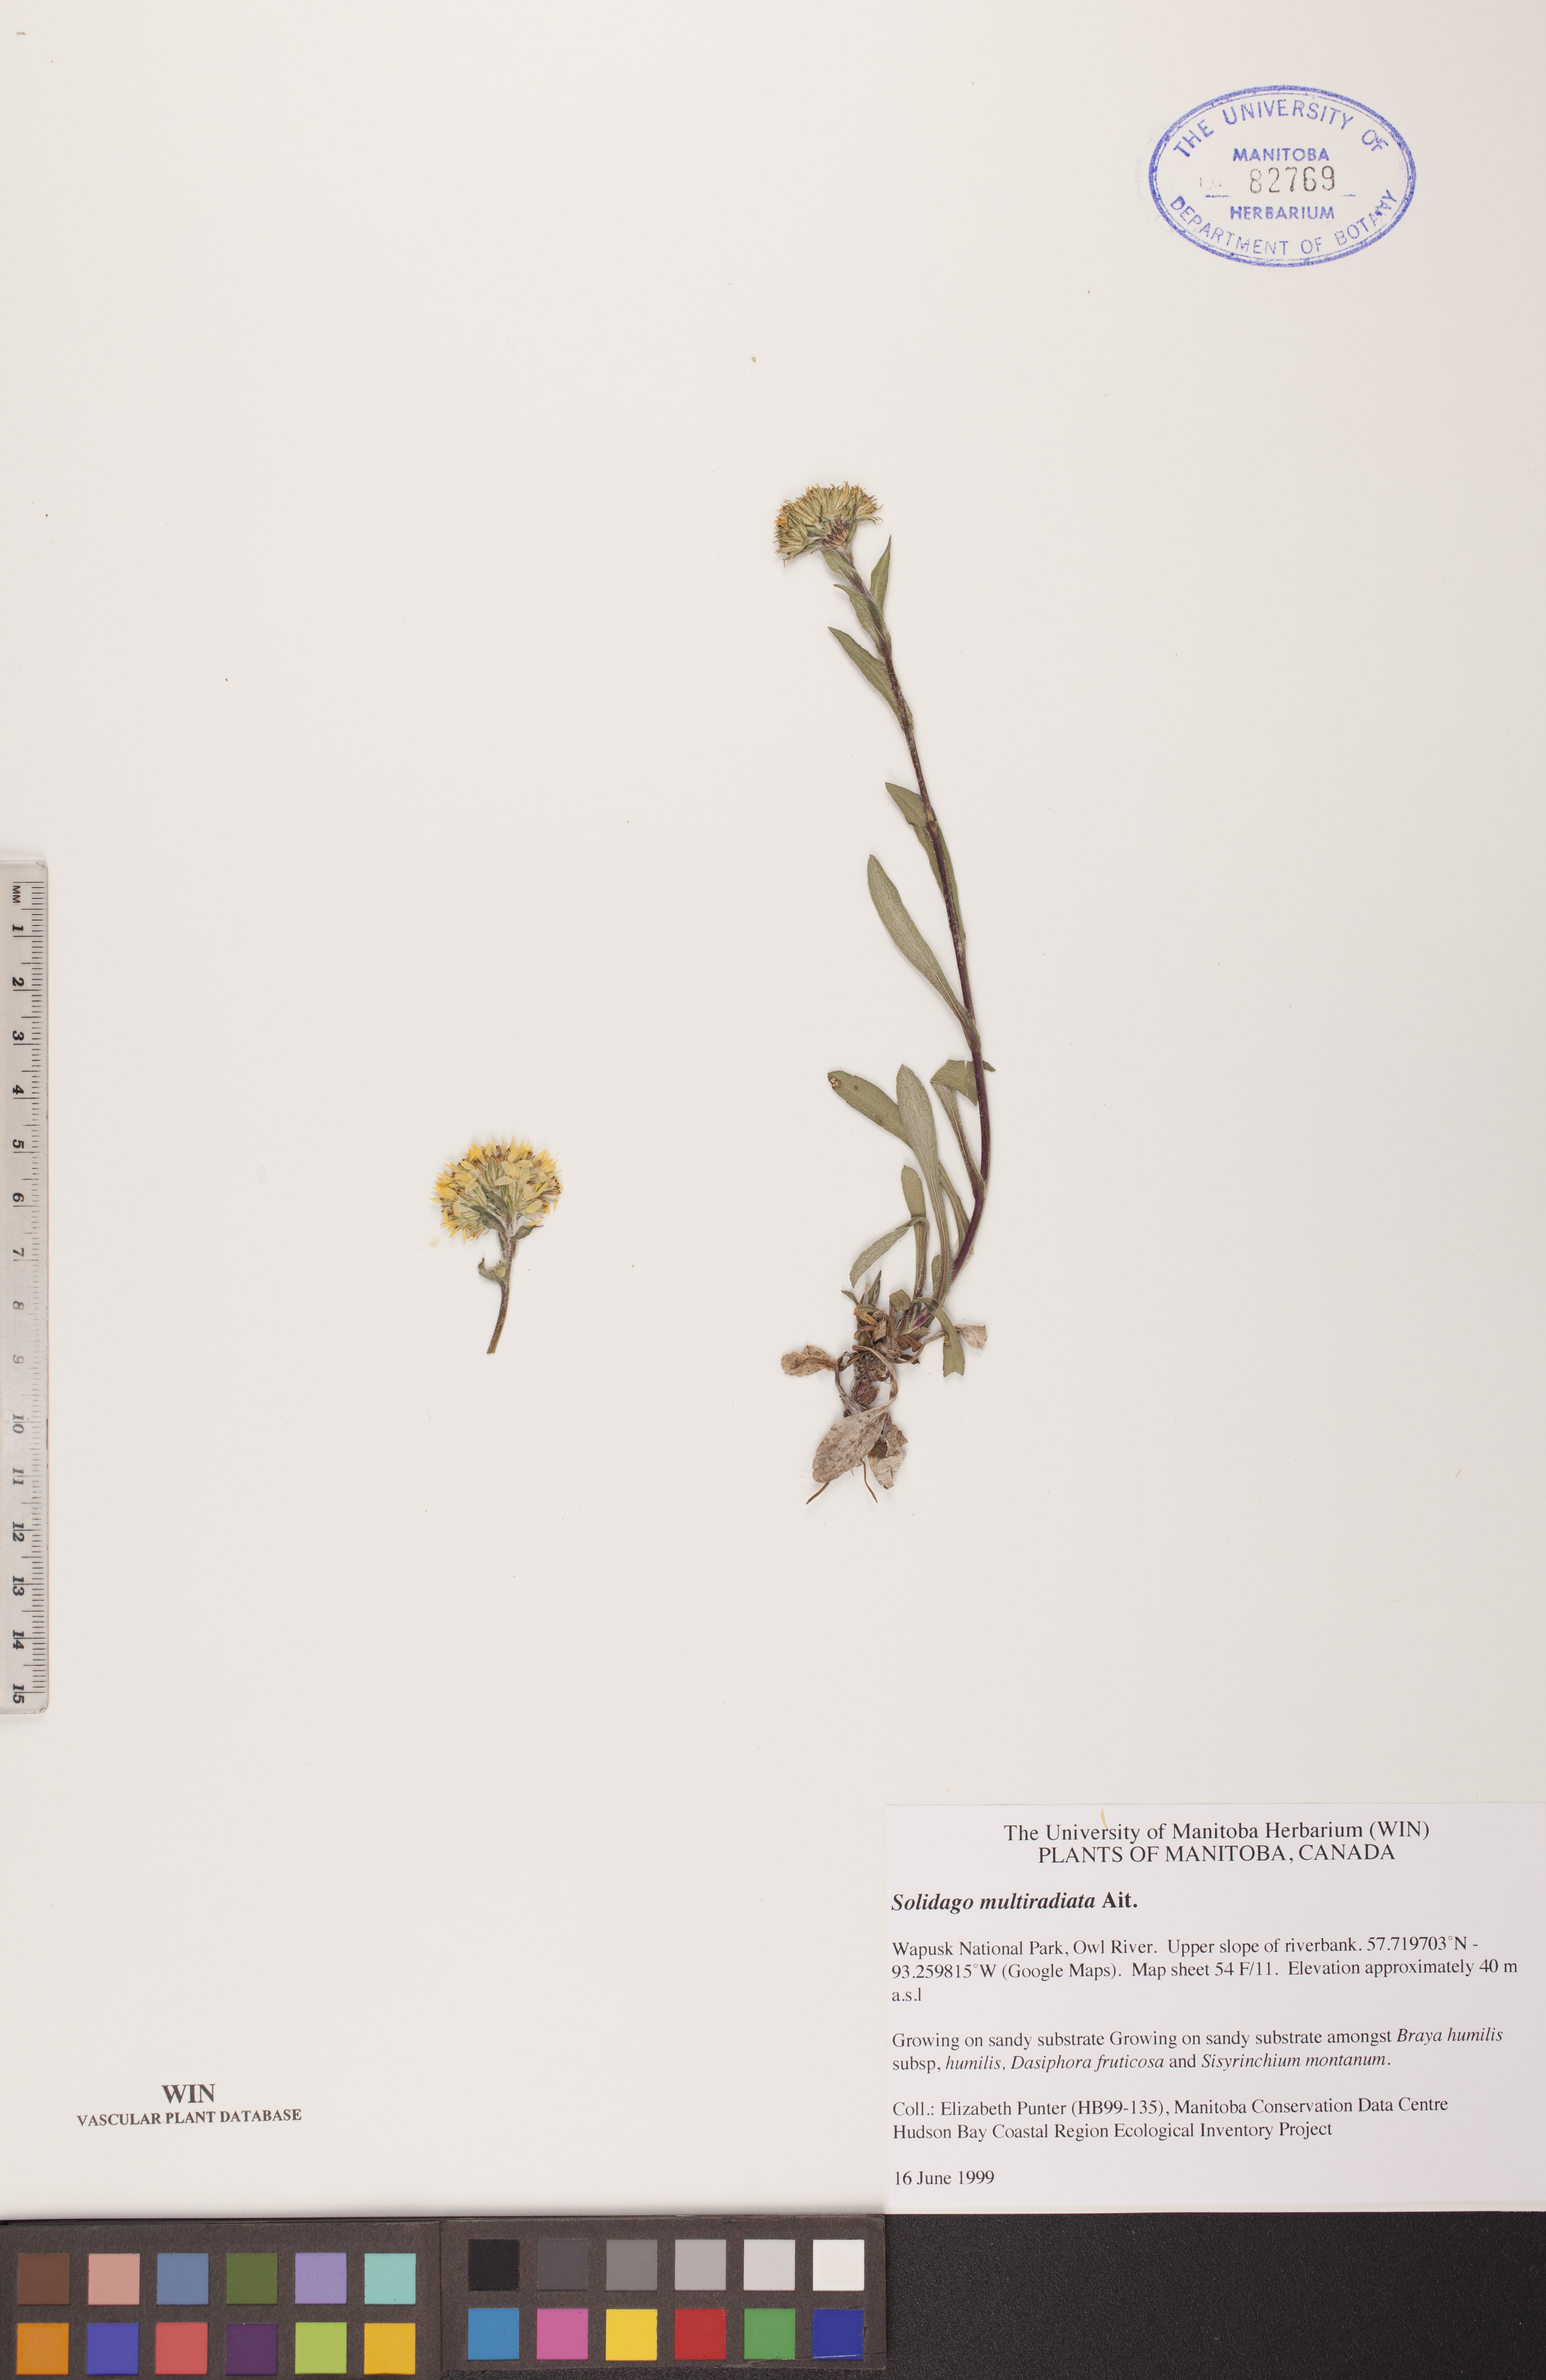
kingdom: Plantae
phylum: Tracheophyta
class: Magnoliopsida
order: Asterales
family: Asteraceae
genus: Solidago
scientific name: Solidago multiradiata
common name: Northern goldenrod
